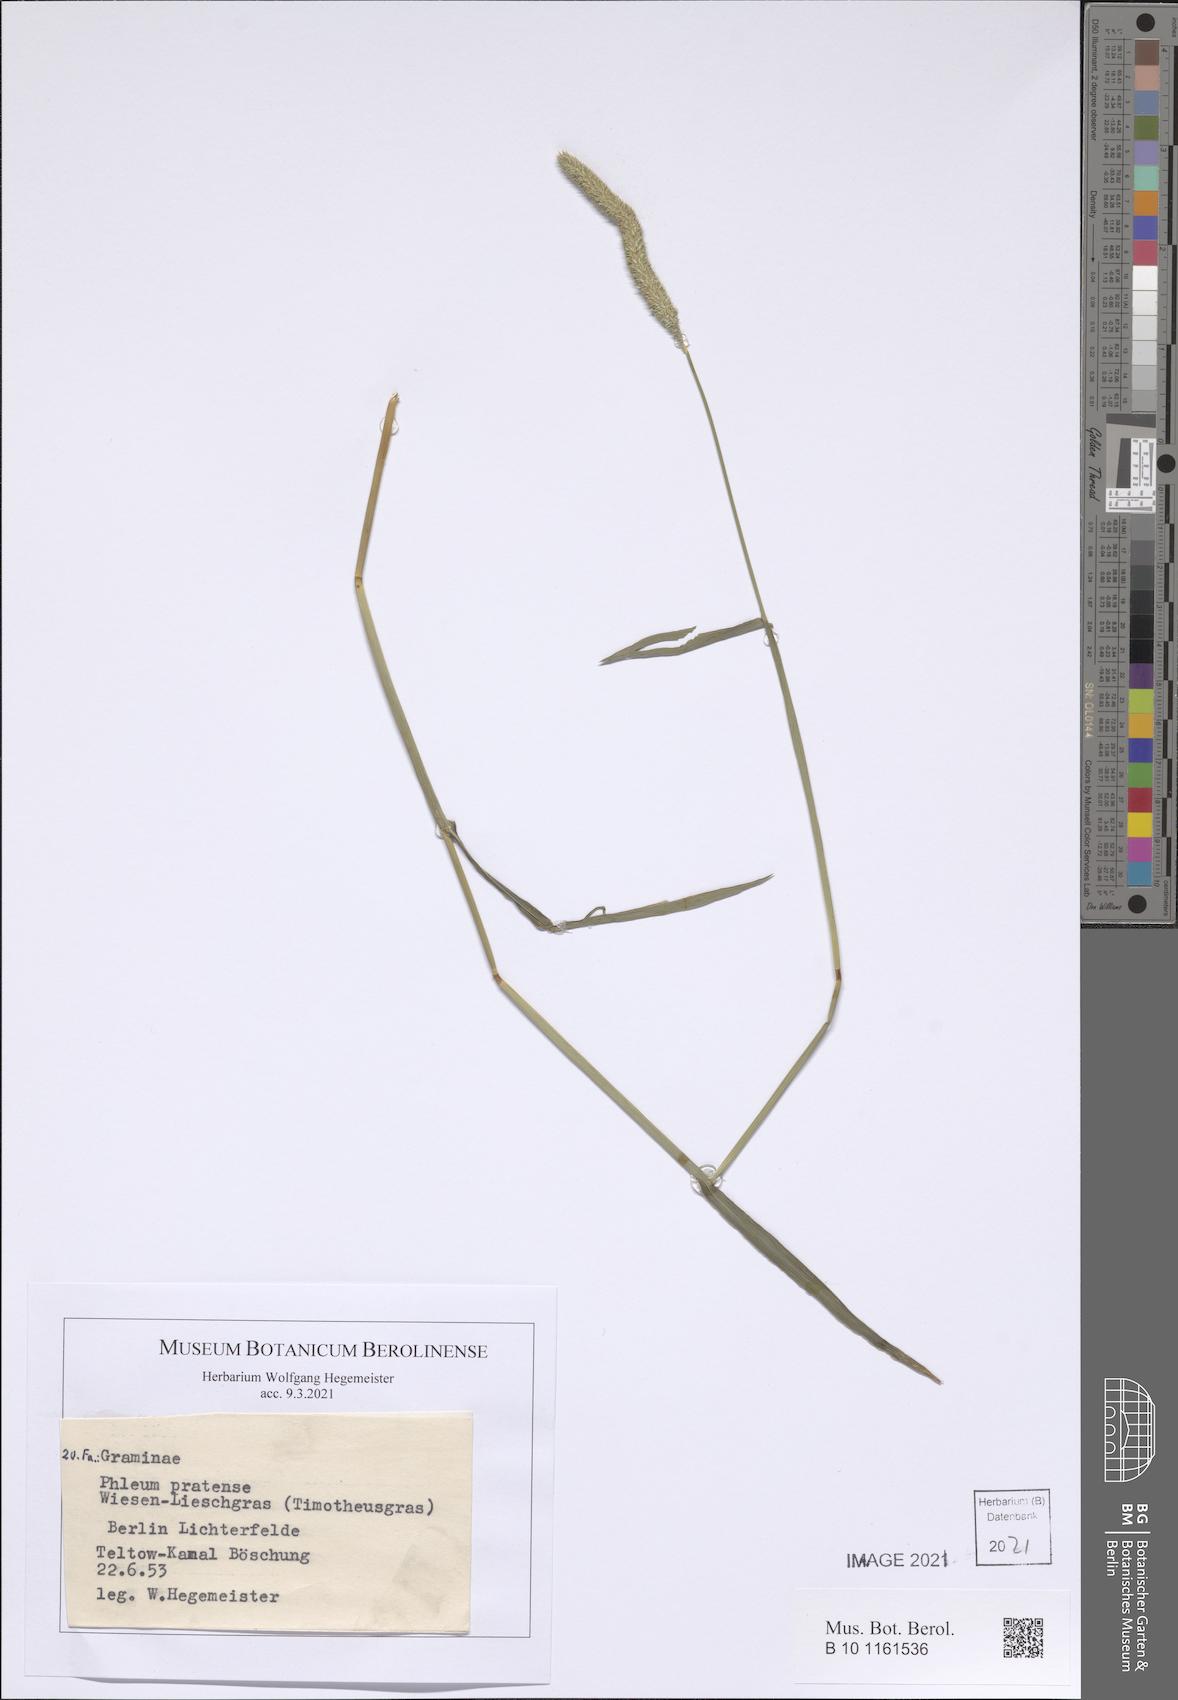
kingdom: Plantae
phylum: Tracheophyta
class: Liliopsida
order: Poales
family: Poaceae
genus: Phleum
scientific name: Phleum pratense
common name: Timothy grass
